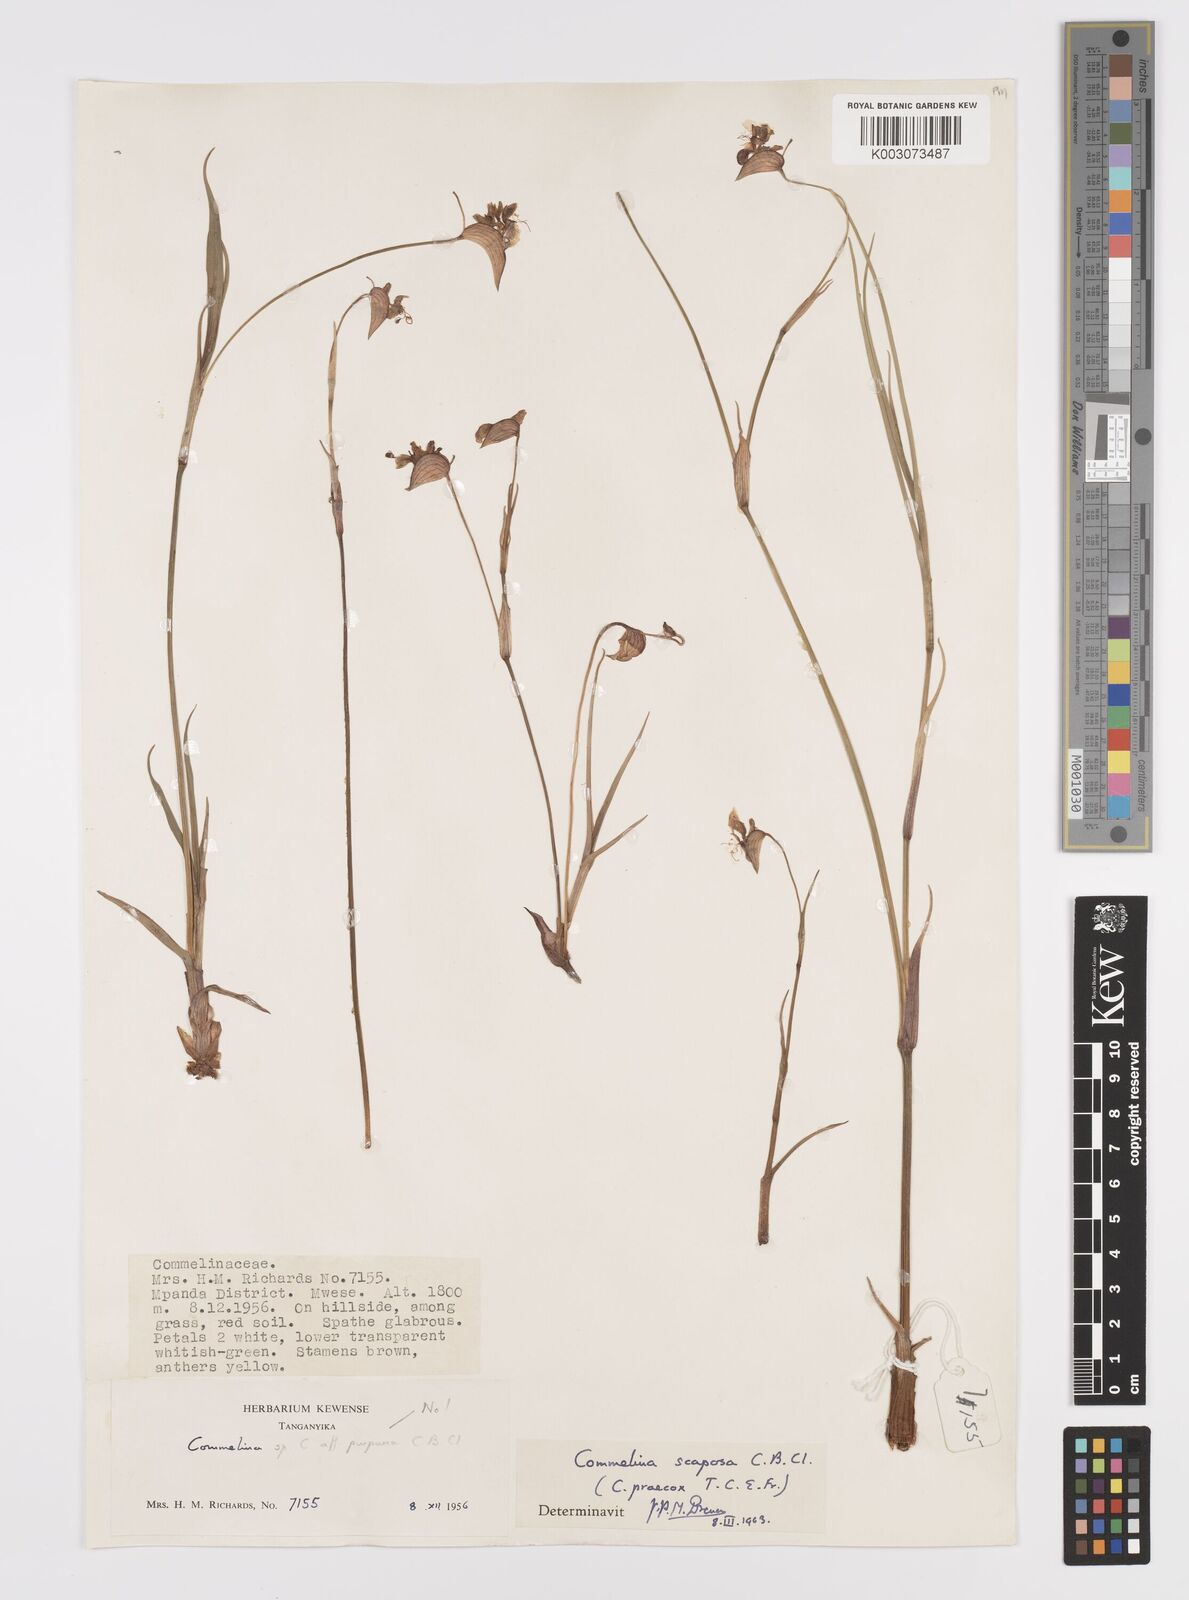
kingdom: Plantae
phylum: Tracheophyta
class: Liliopsida
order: Commelinales
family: Commelinaceae
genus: Commelina
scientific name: Commelina scaposa
